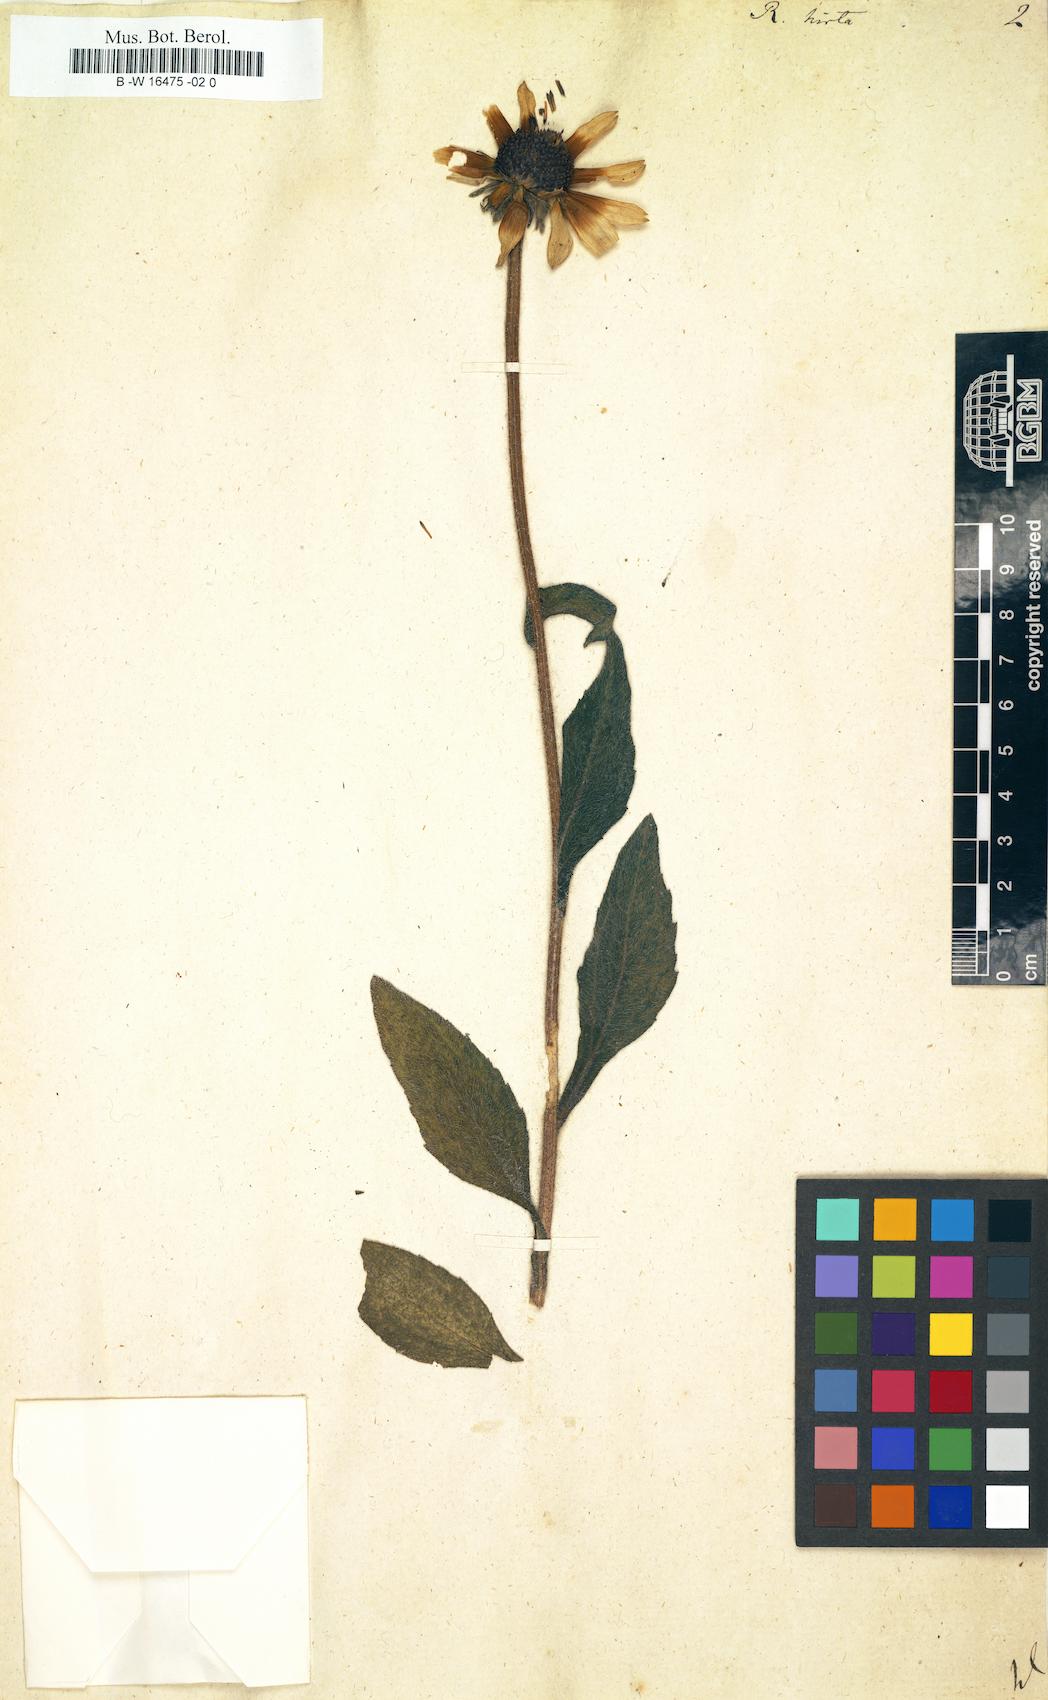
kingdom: Plantae
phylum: Tracheophyta
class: Magnoliopsida
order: Asterales
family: Asteraceae
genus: Rudbeckia
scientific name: Rudbeckia hirta
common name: Black-eyed-susan
